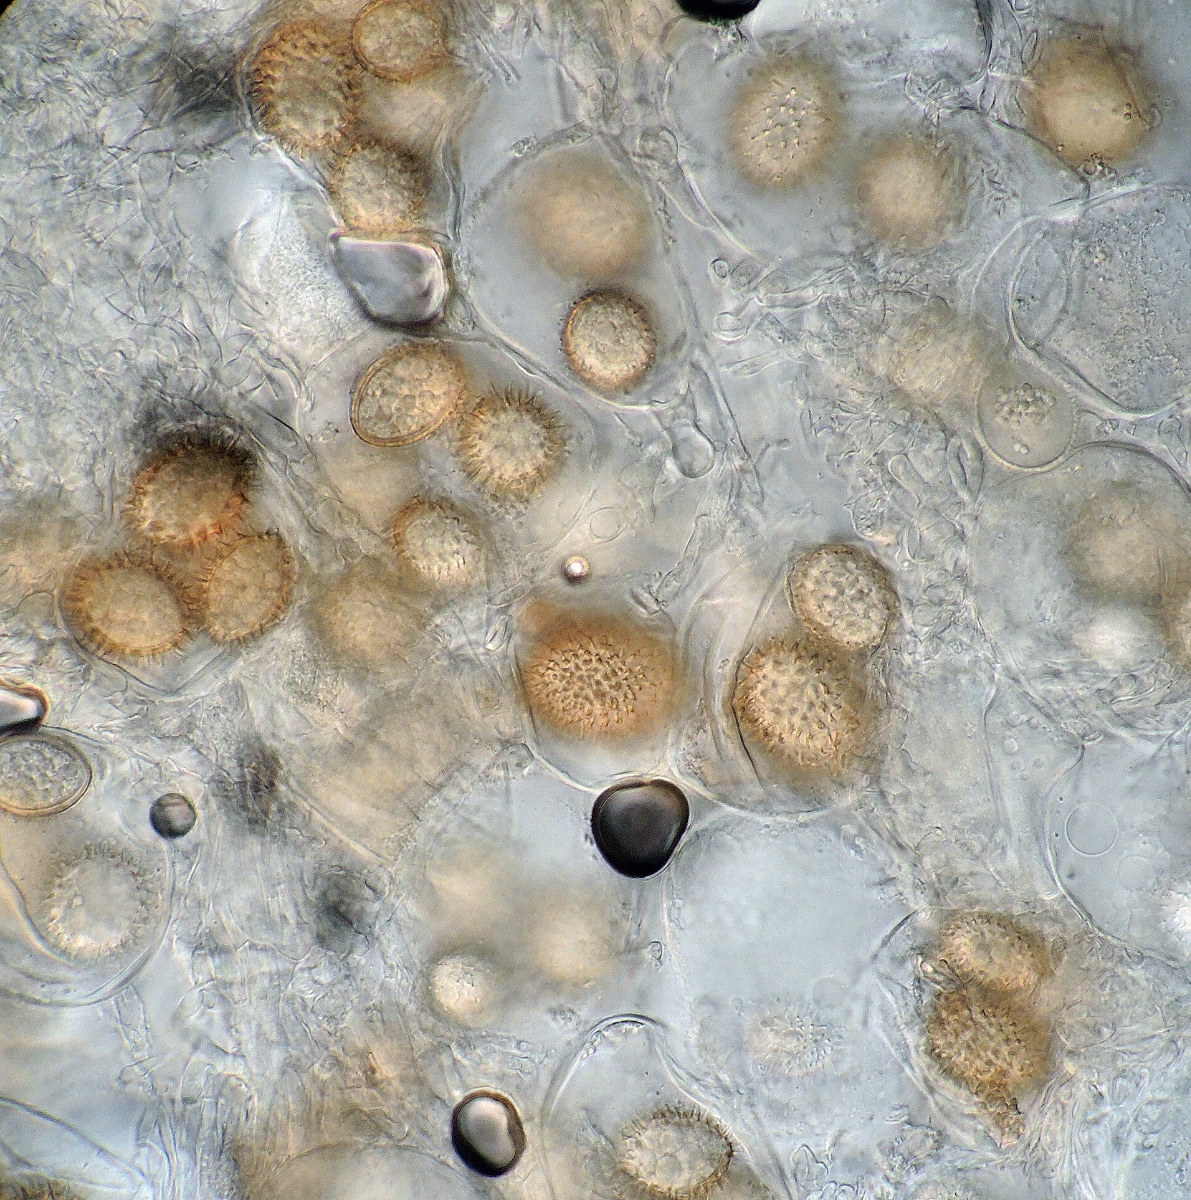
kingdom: Fungi
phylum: Ascomycota
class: Pezizomycetes
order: Pezizales
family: Tuberaceae
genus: Tuber
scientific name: Tuber rufum
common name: rødbrun trøffel
